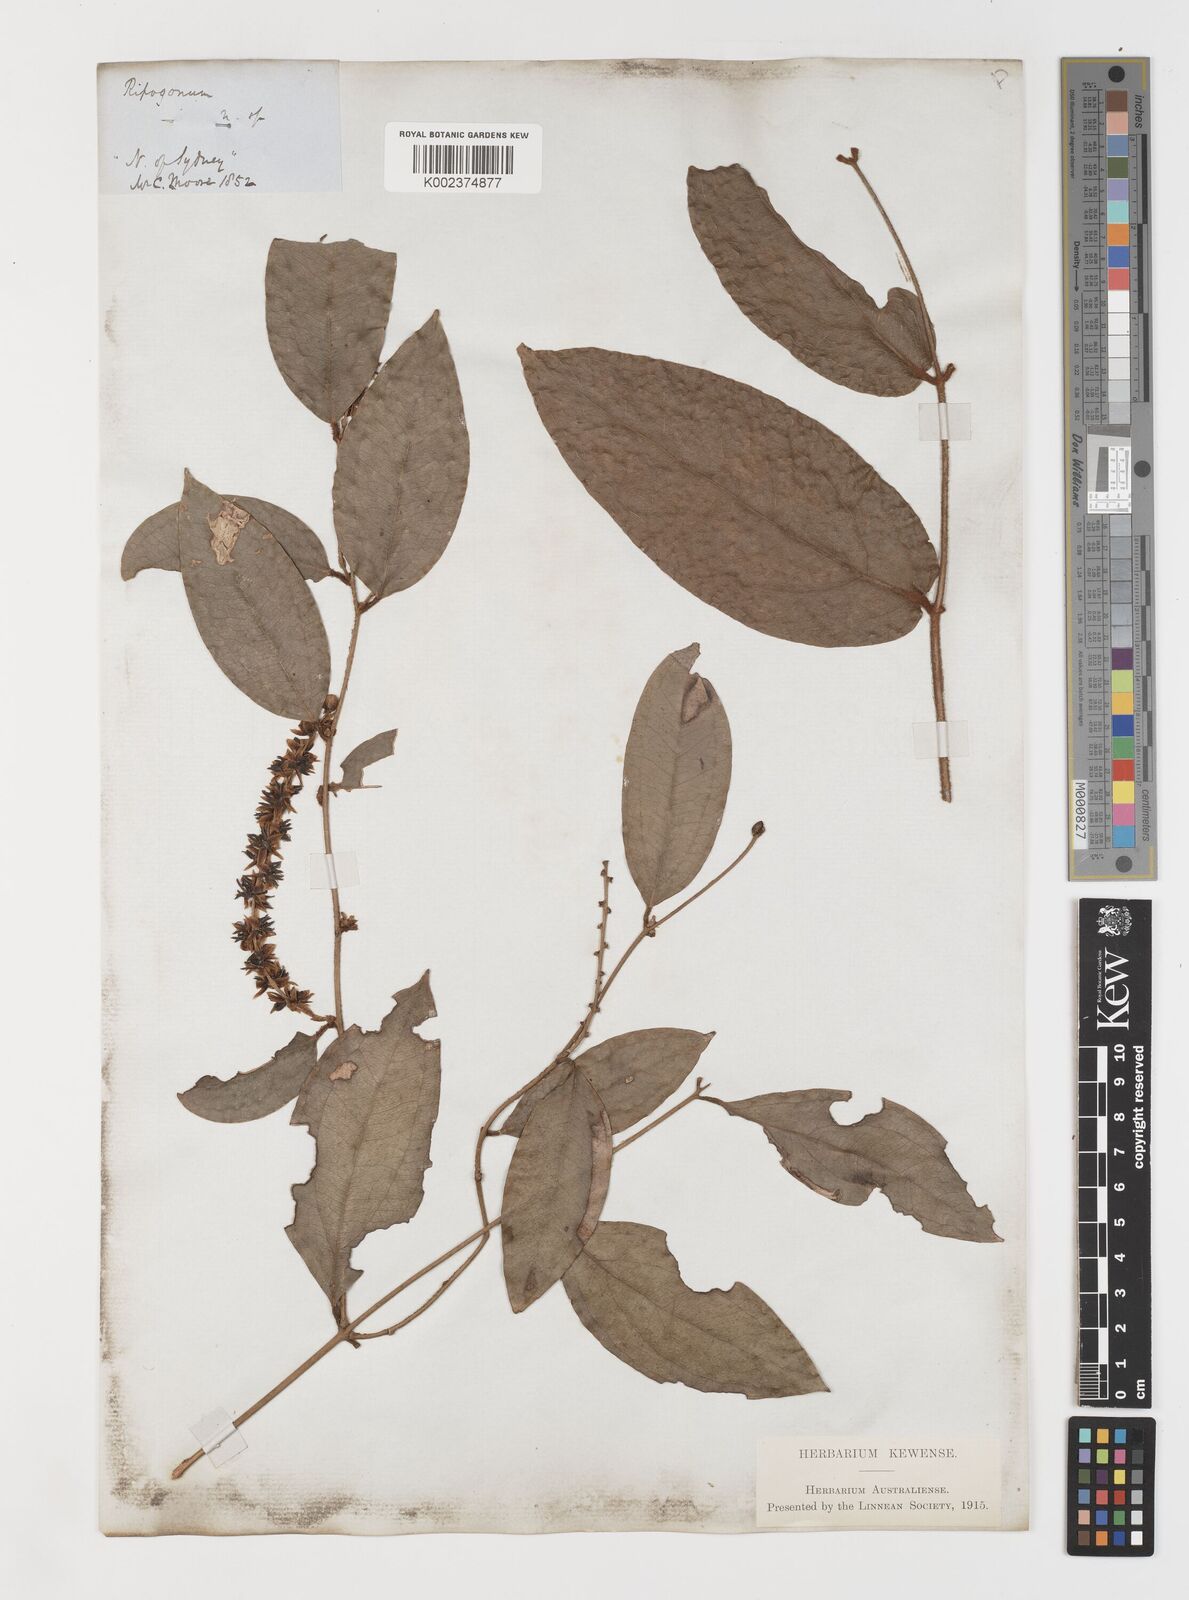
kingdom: Plantae
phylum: Tracheophyta
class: Liliopsida
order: Liliales
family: Ripogonaceae
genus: Ripogonum
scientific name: Ripogonum elseyanum
